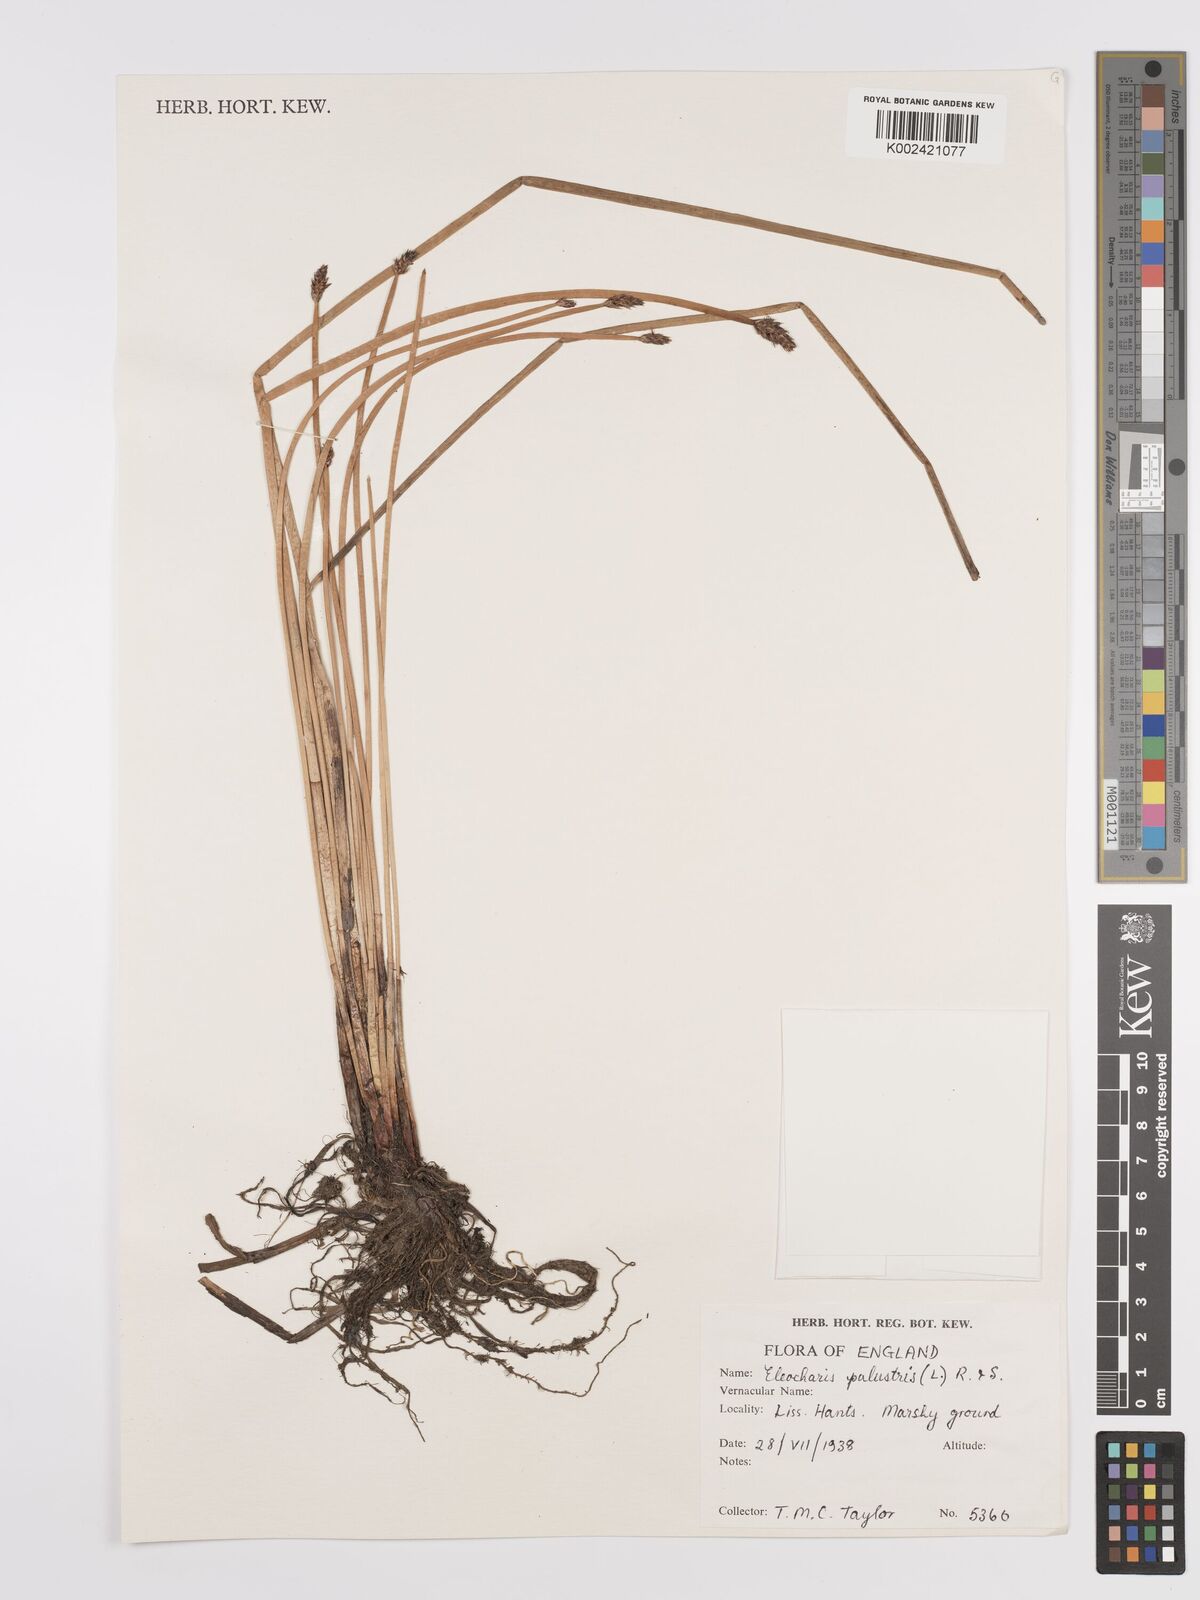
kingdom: Plantae
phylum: Tracheophyta
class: Liliopsida
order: Poales
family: Cyperaceae
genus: Eleocharis
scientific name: Eleocharis palustris
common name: Common spike-rush
